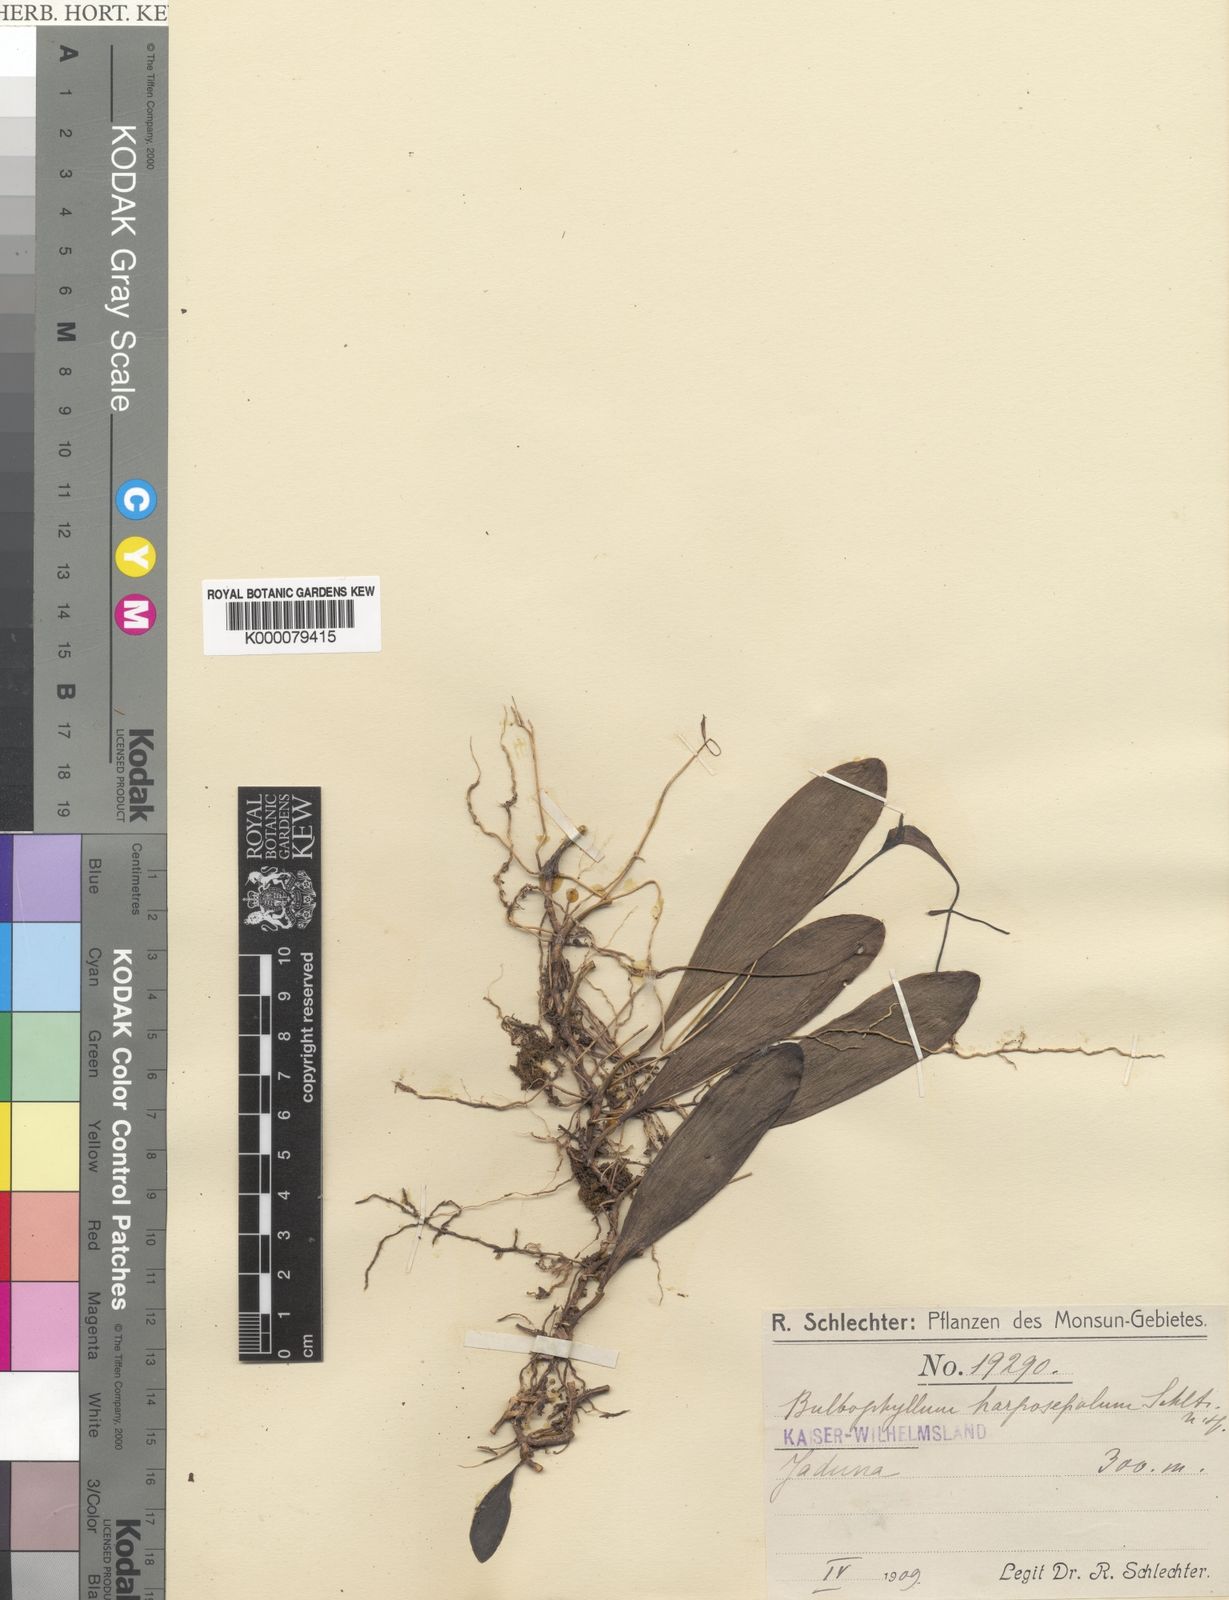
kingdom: Plantae
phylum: Tracheophyta
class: Liliopsida
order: Asparagales
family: Orchidaceae
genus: Bulbophyllum
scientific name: Bulbophyllum obovatifolium
